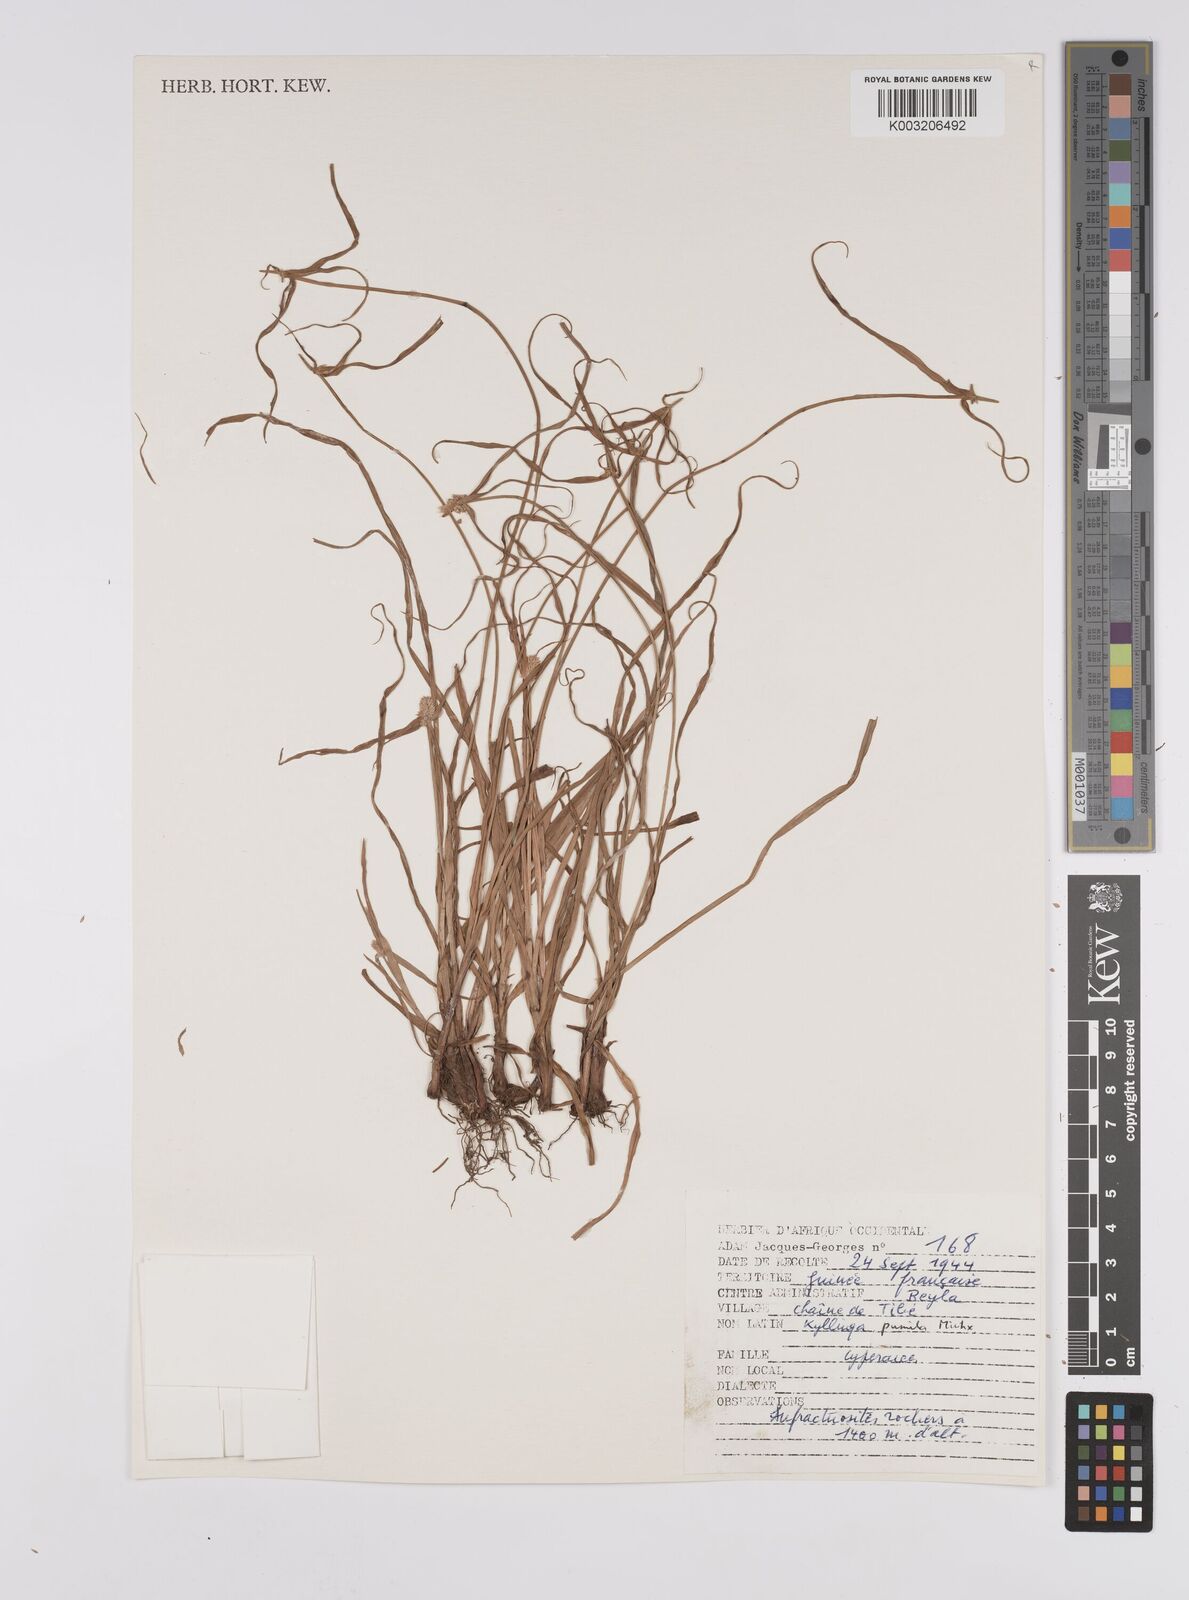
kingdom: Plantae
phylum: Tracheophyta
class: Liliopsida
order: Poales
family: Cyperaceae
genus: Cyperus
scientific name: Cyperus
